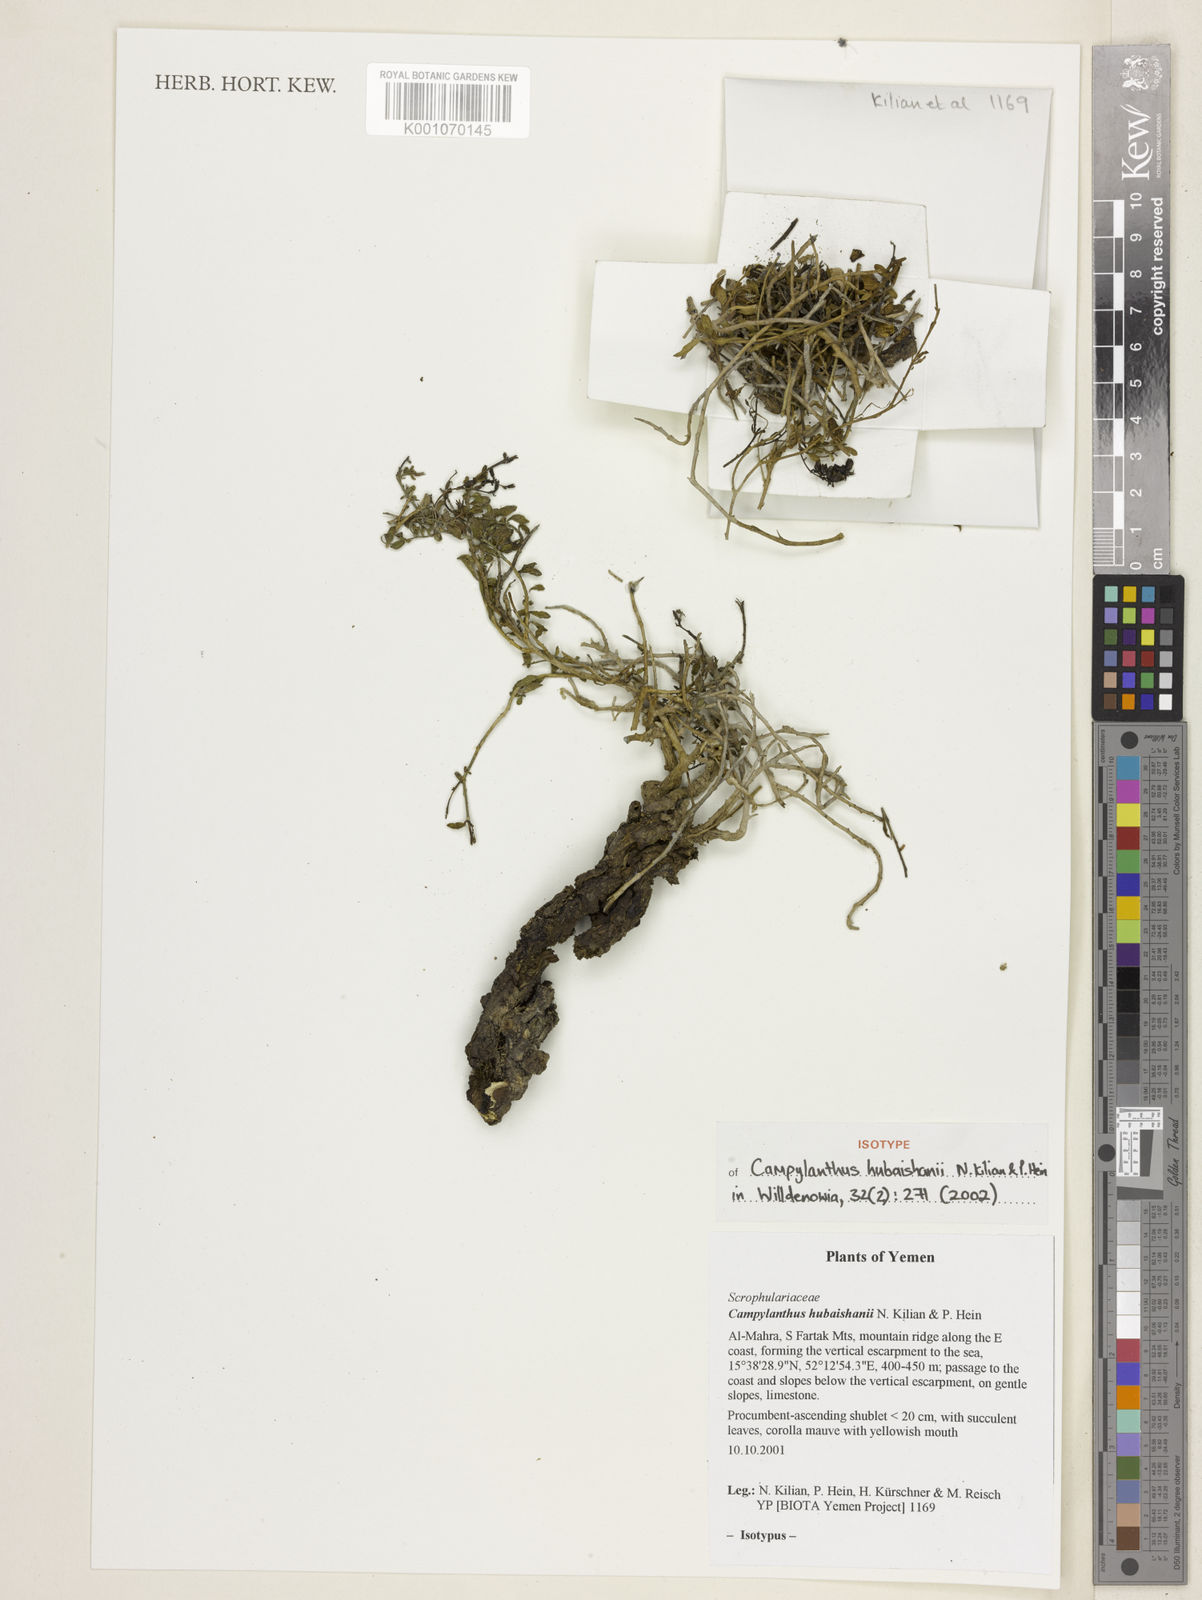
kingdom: Plantae
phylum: Tracheophyta
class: Magnoliopsida
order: Lamiales
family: Plantaginaceae
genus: Campylanthus
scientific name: Campylanthus hubaishanii
